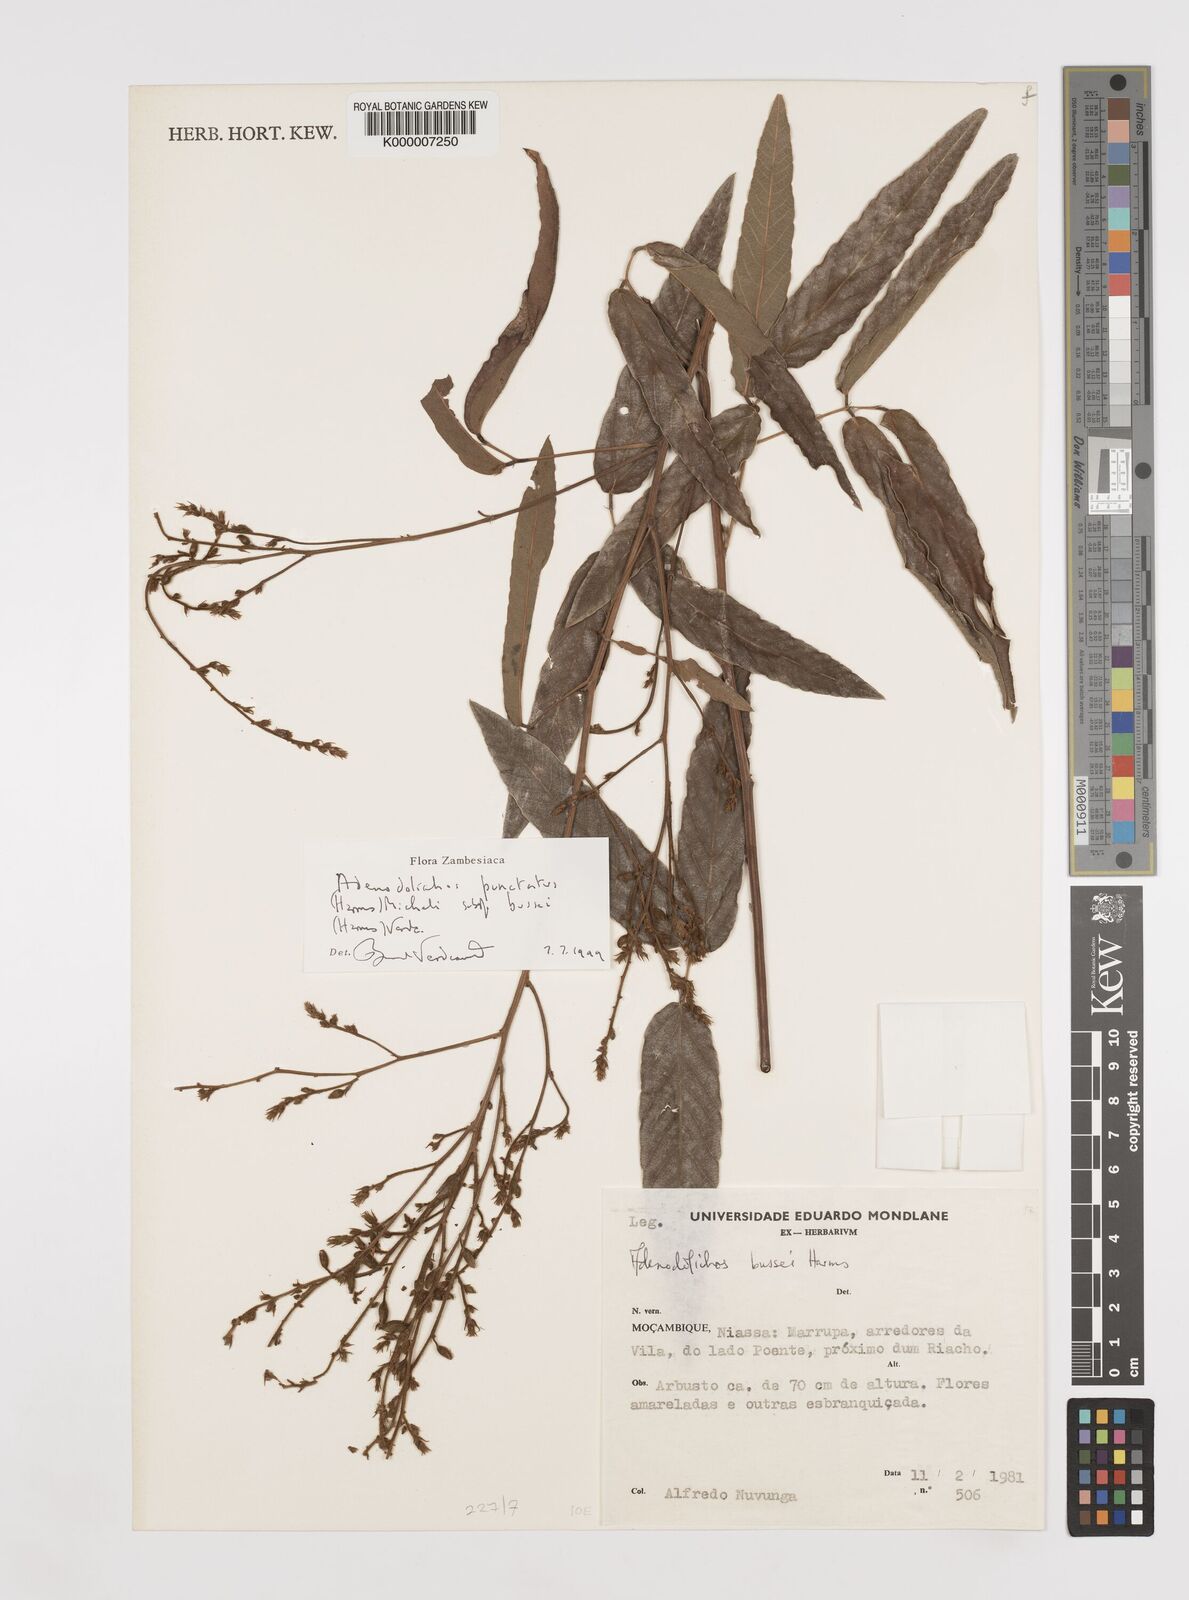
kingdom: Plantae
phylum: Tracheophyta
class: Magnoliopsida
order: Fabales
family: Fabaceae
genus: Adenodolichos
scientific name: Adenodolichos punctatus
